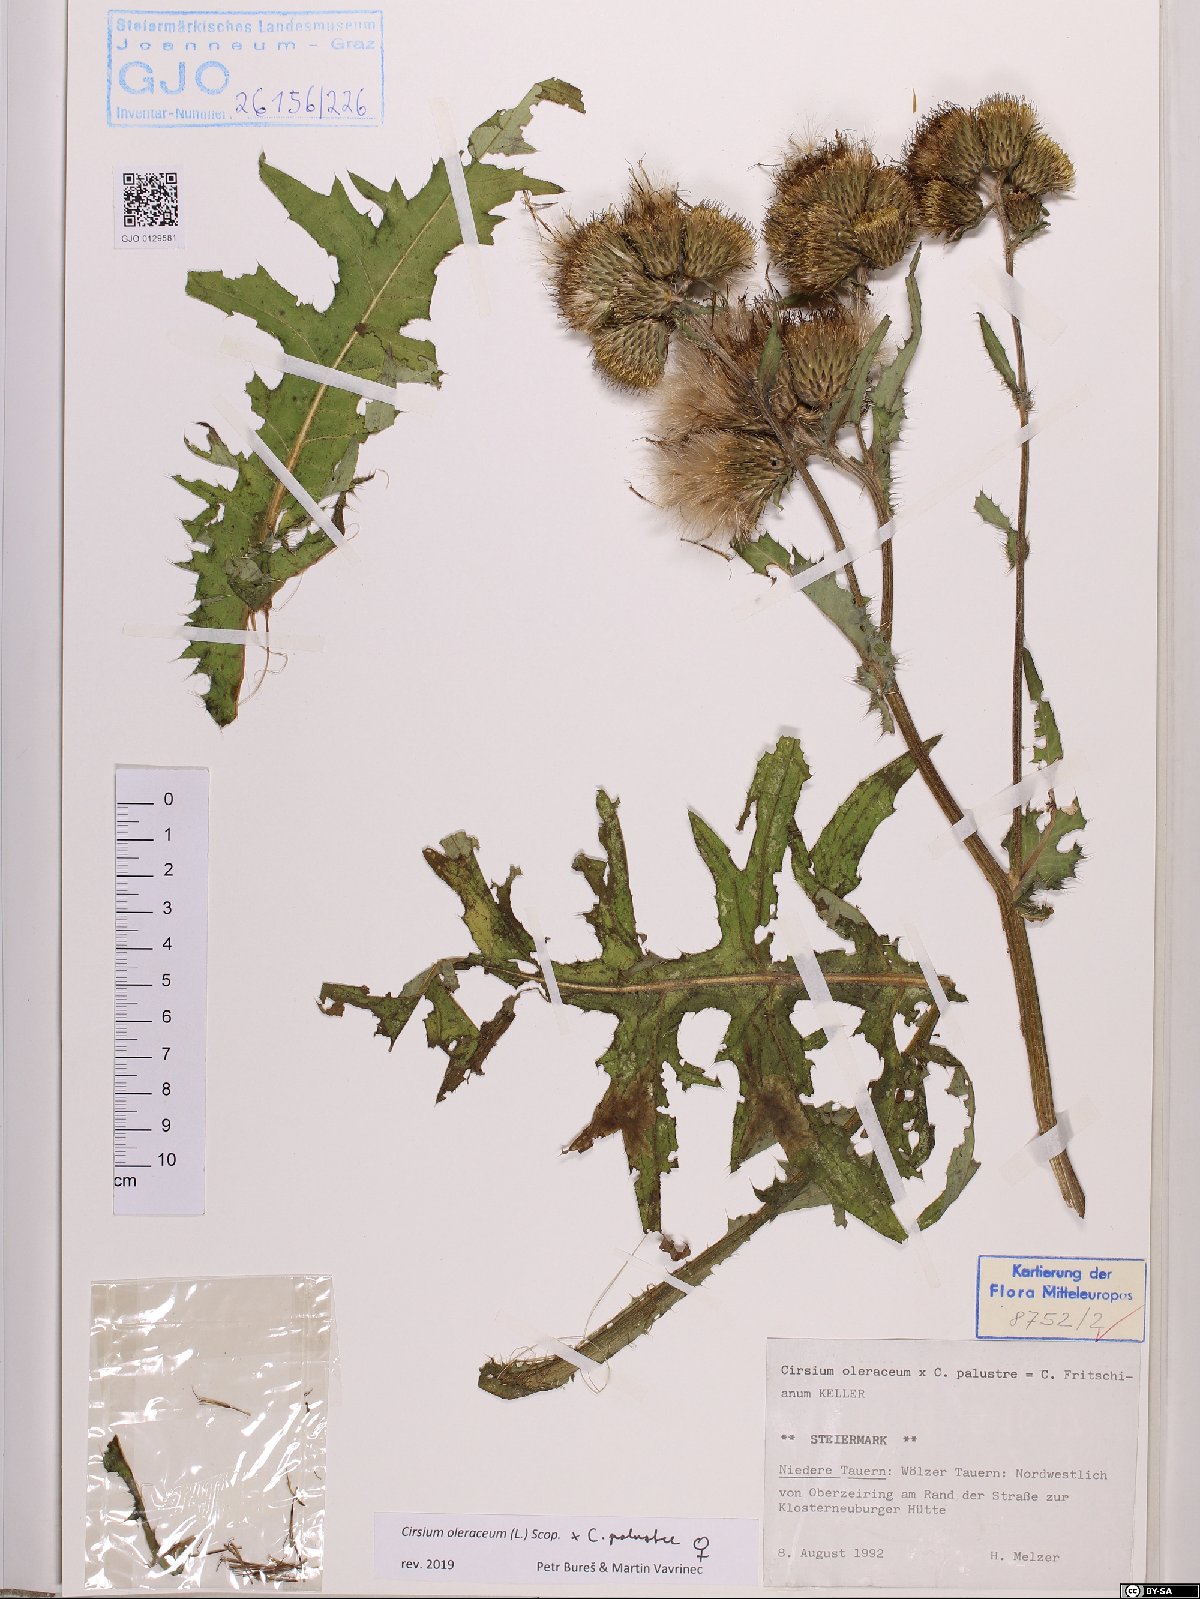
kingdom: Plantae
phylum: Tracheophyta
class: Magnoliopsida
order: Asterales
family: Asteraceae
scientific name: Asteraceae
